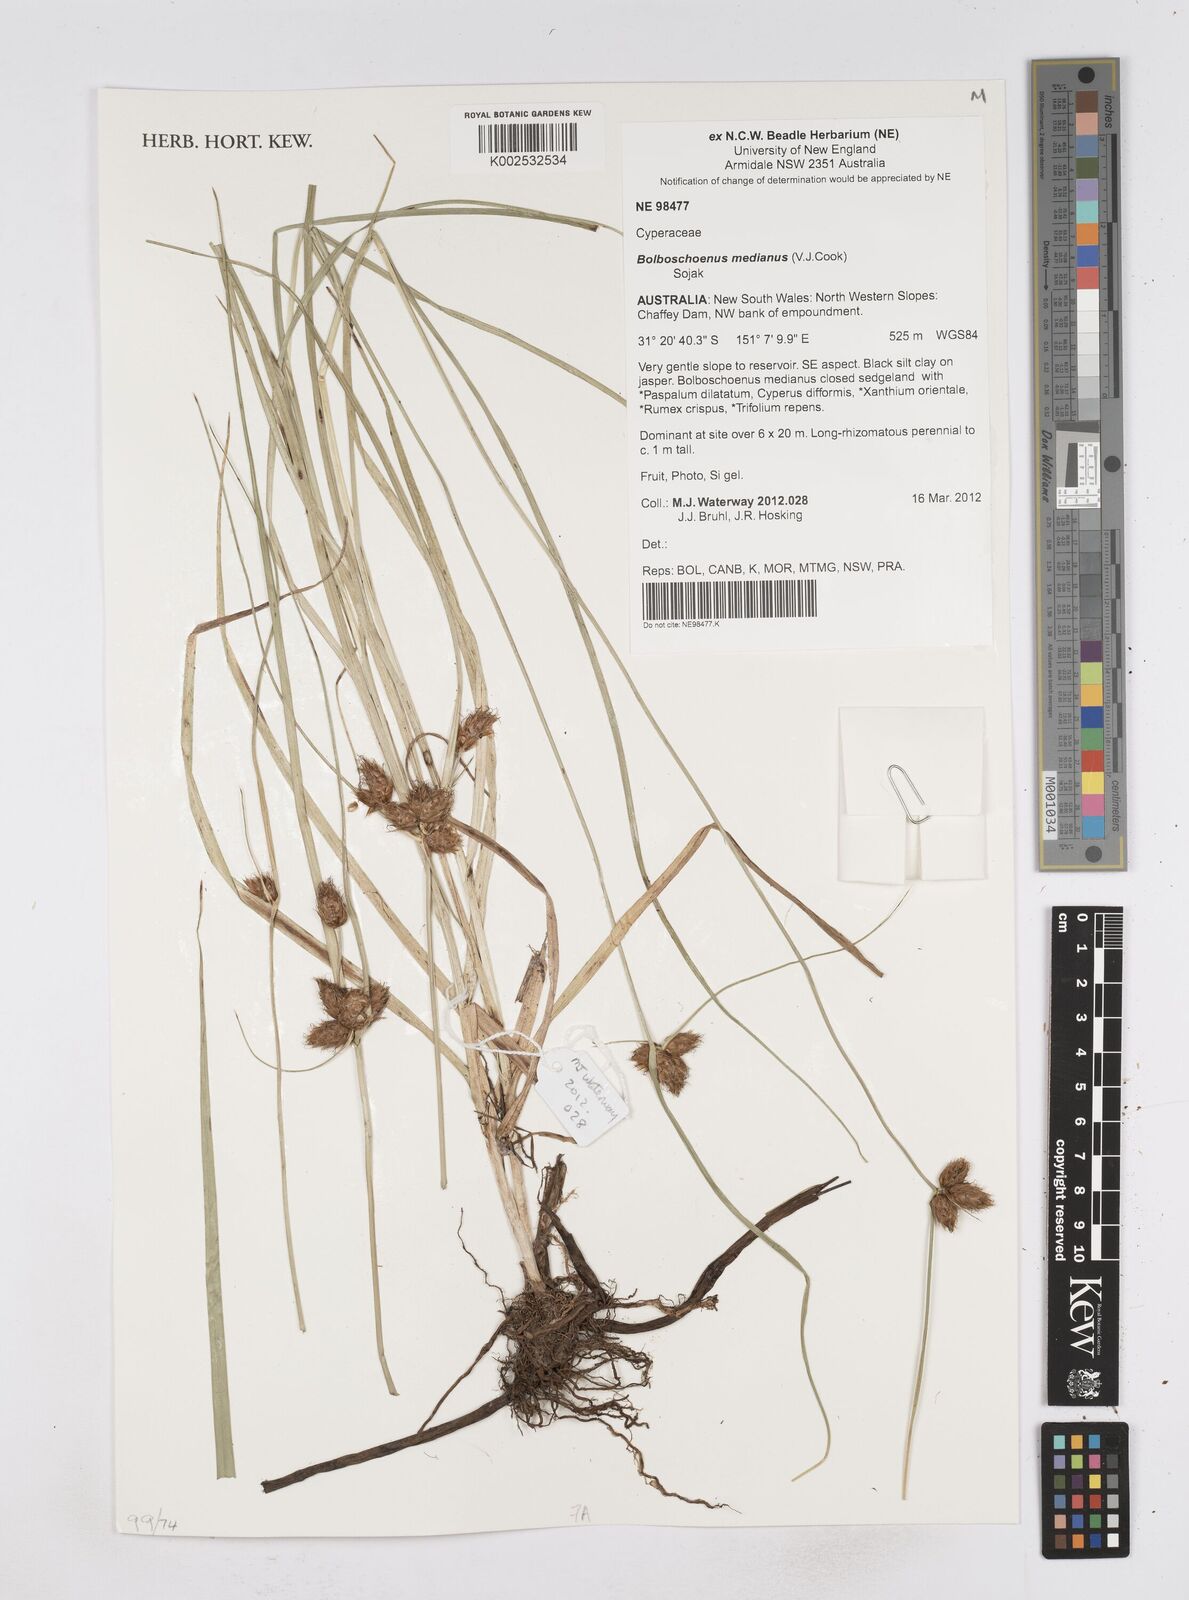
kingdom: Plantae
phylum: Tracheophyta
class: Liliopsida
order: Poales
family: Cyperaceae
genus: Bolboschoenus
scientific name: Bolboschoenus medianus
